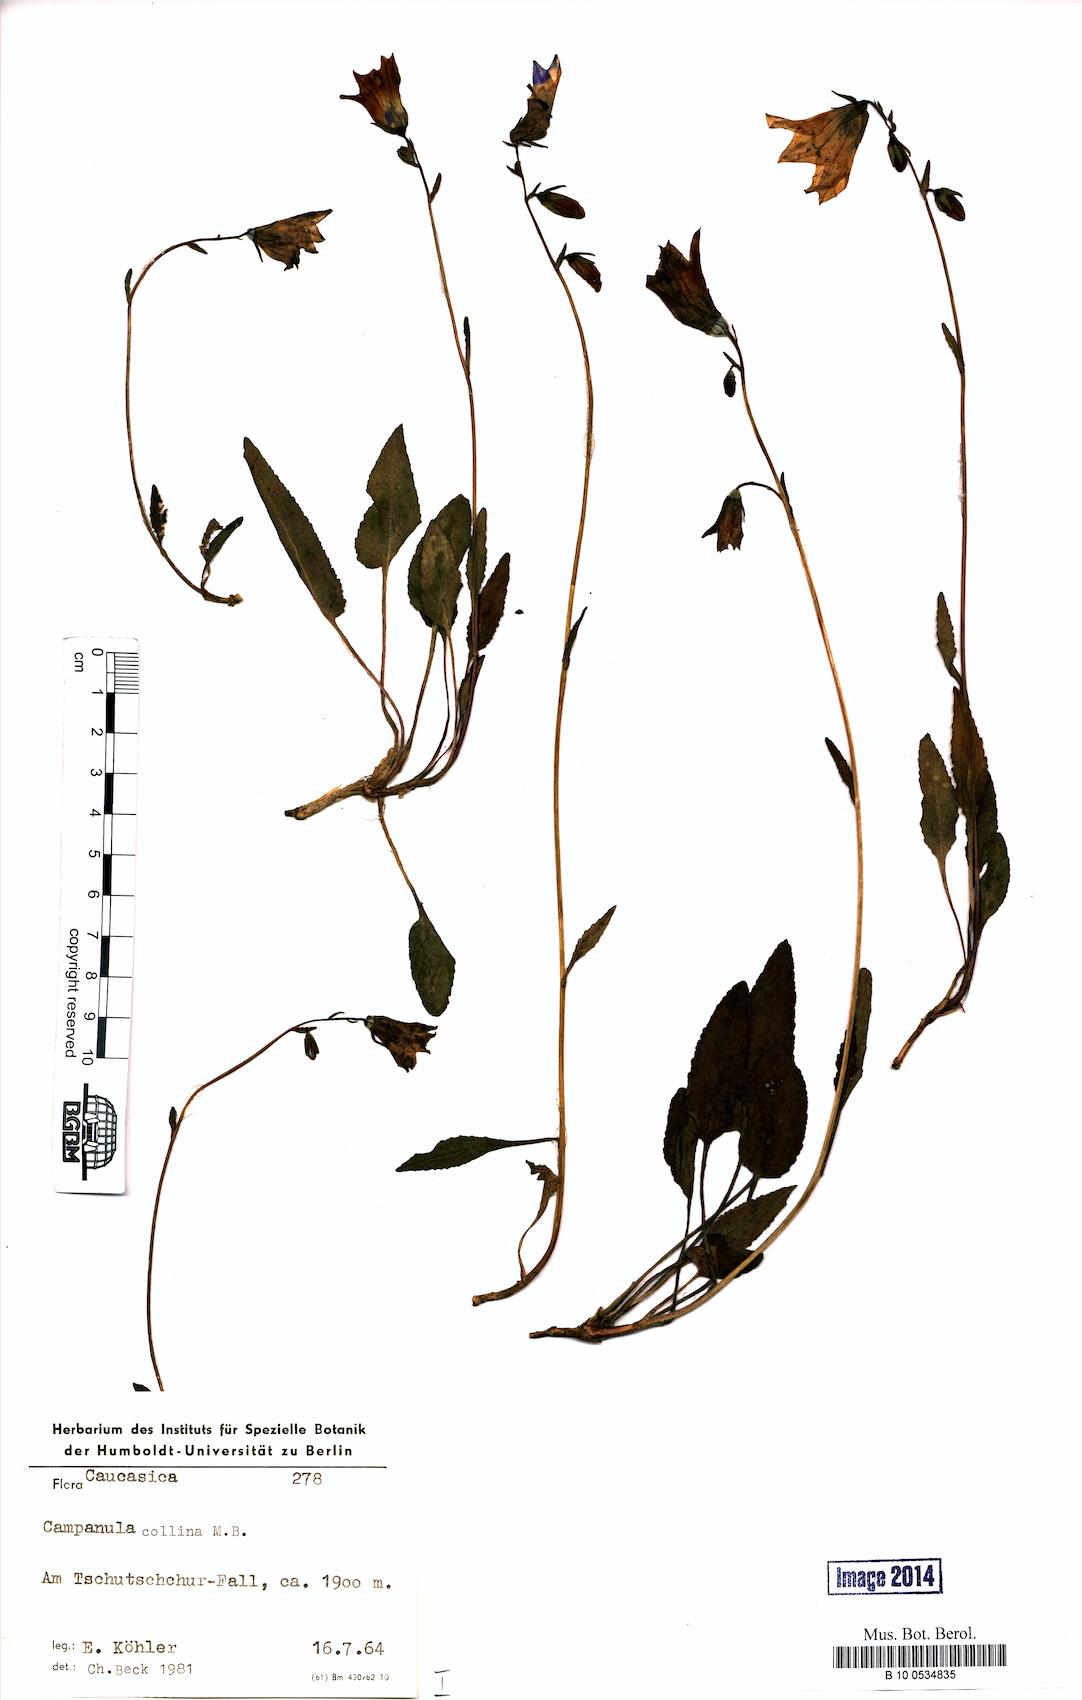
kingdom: Plantae
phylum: Tracheophyta
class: Magnoliopsida
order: Asterales
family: Campanulaceae
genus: Campanula
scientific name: Campanula collina
